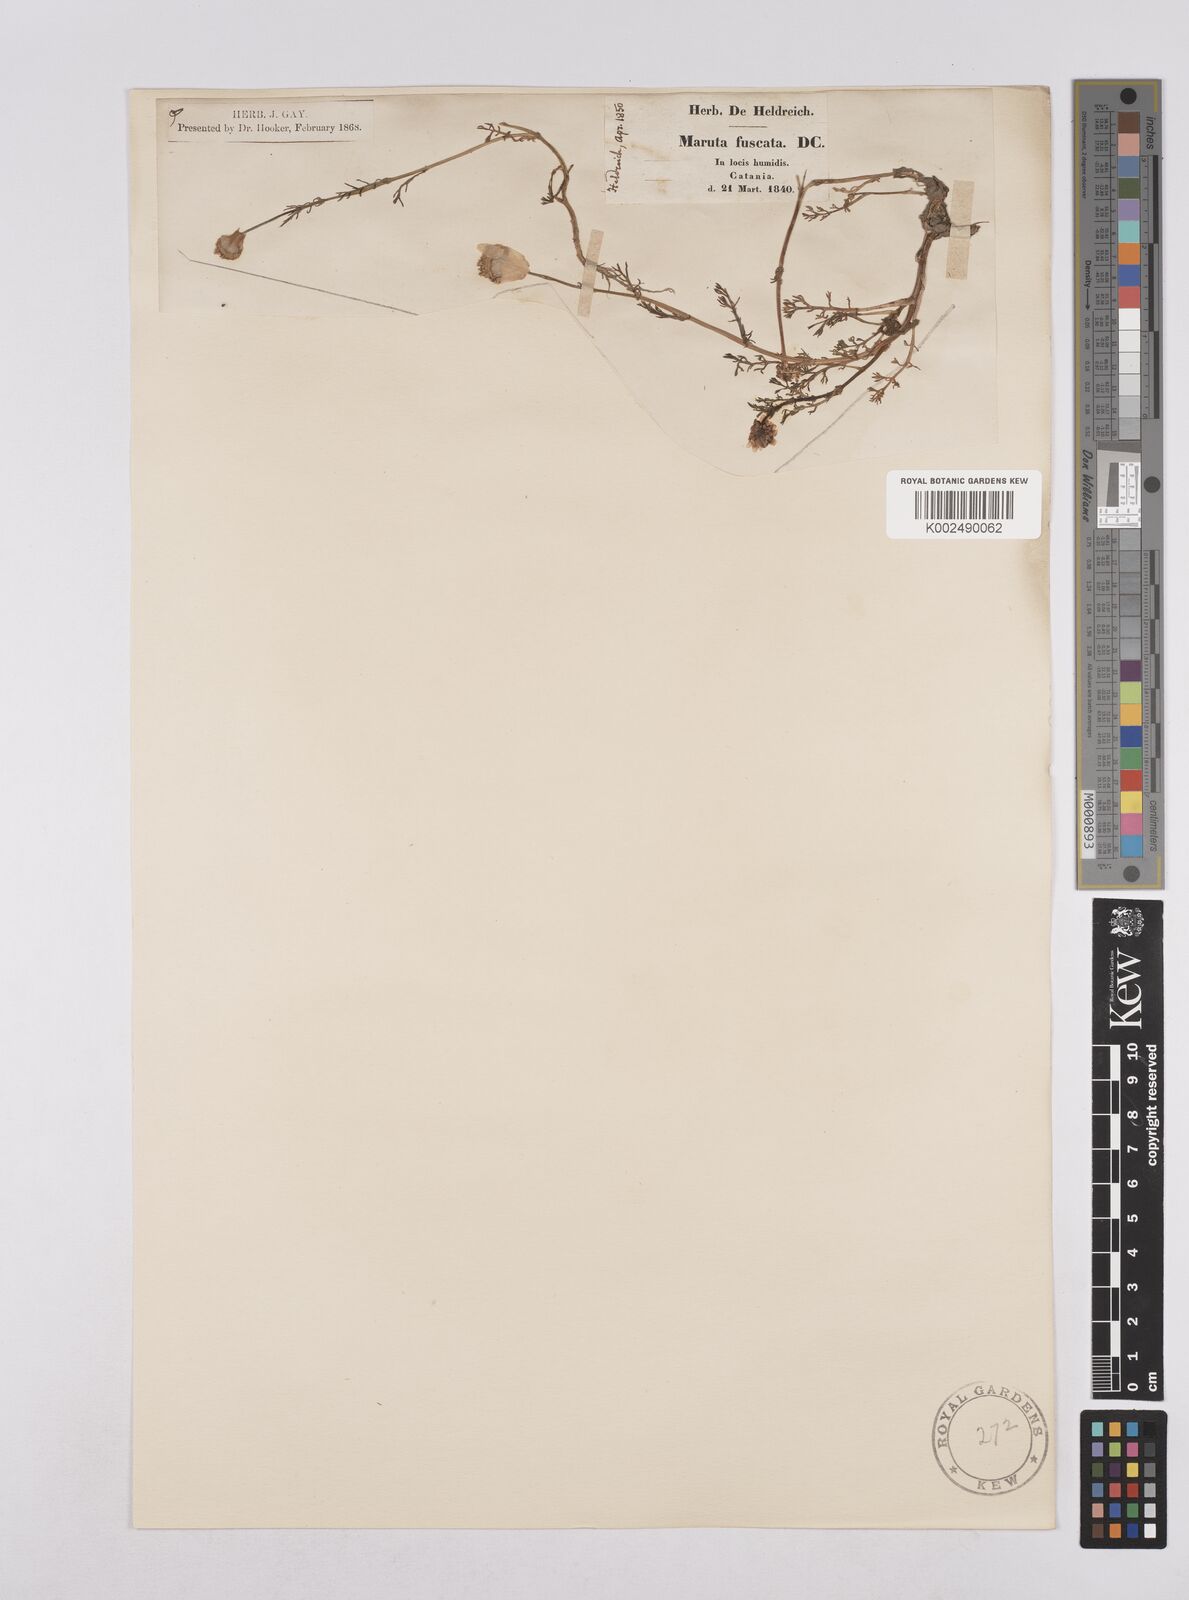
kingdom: Plantae
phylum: Tracheophyta
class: Magnoliopsida
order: Asterales
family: Asteraceae
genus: Chamaemelum
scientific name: Chamaemelum fuscatum
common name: Chamomile
